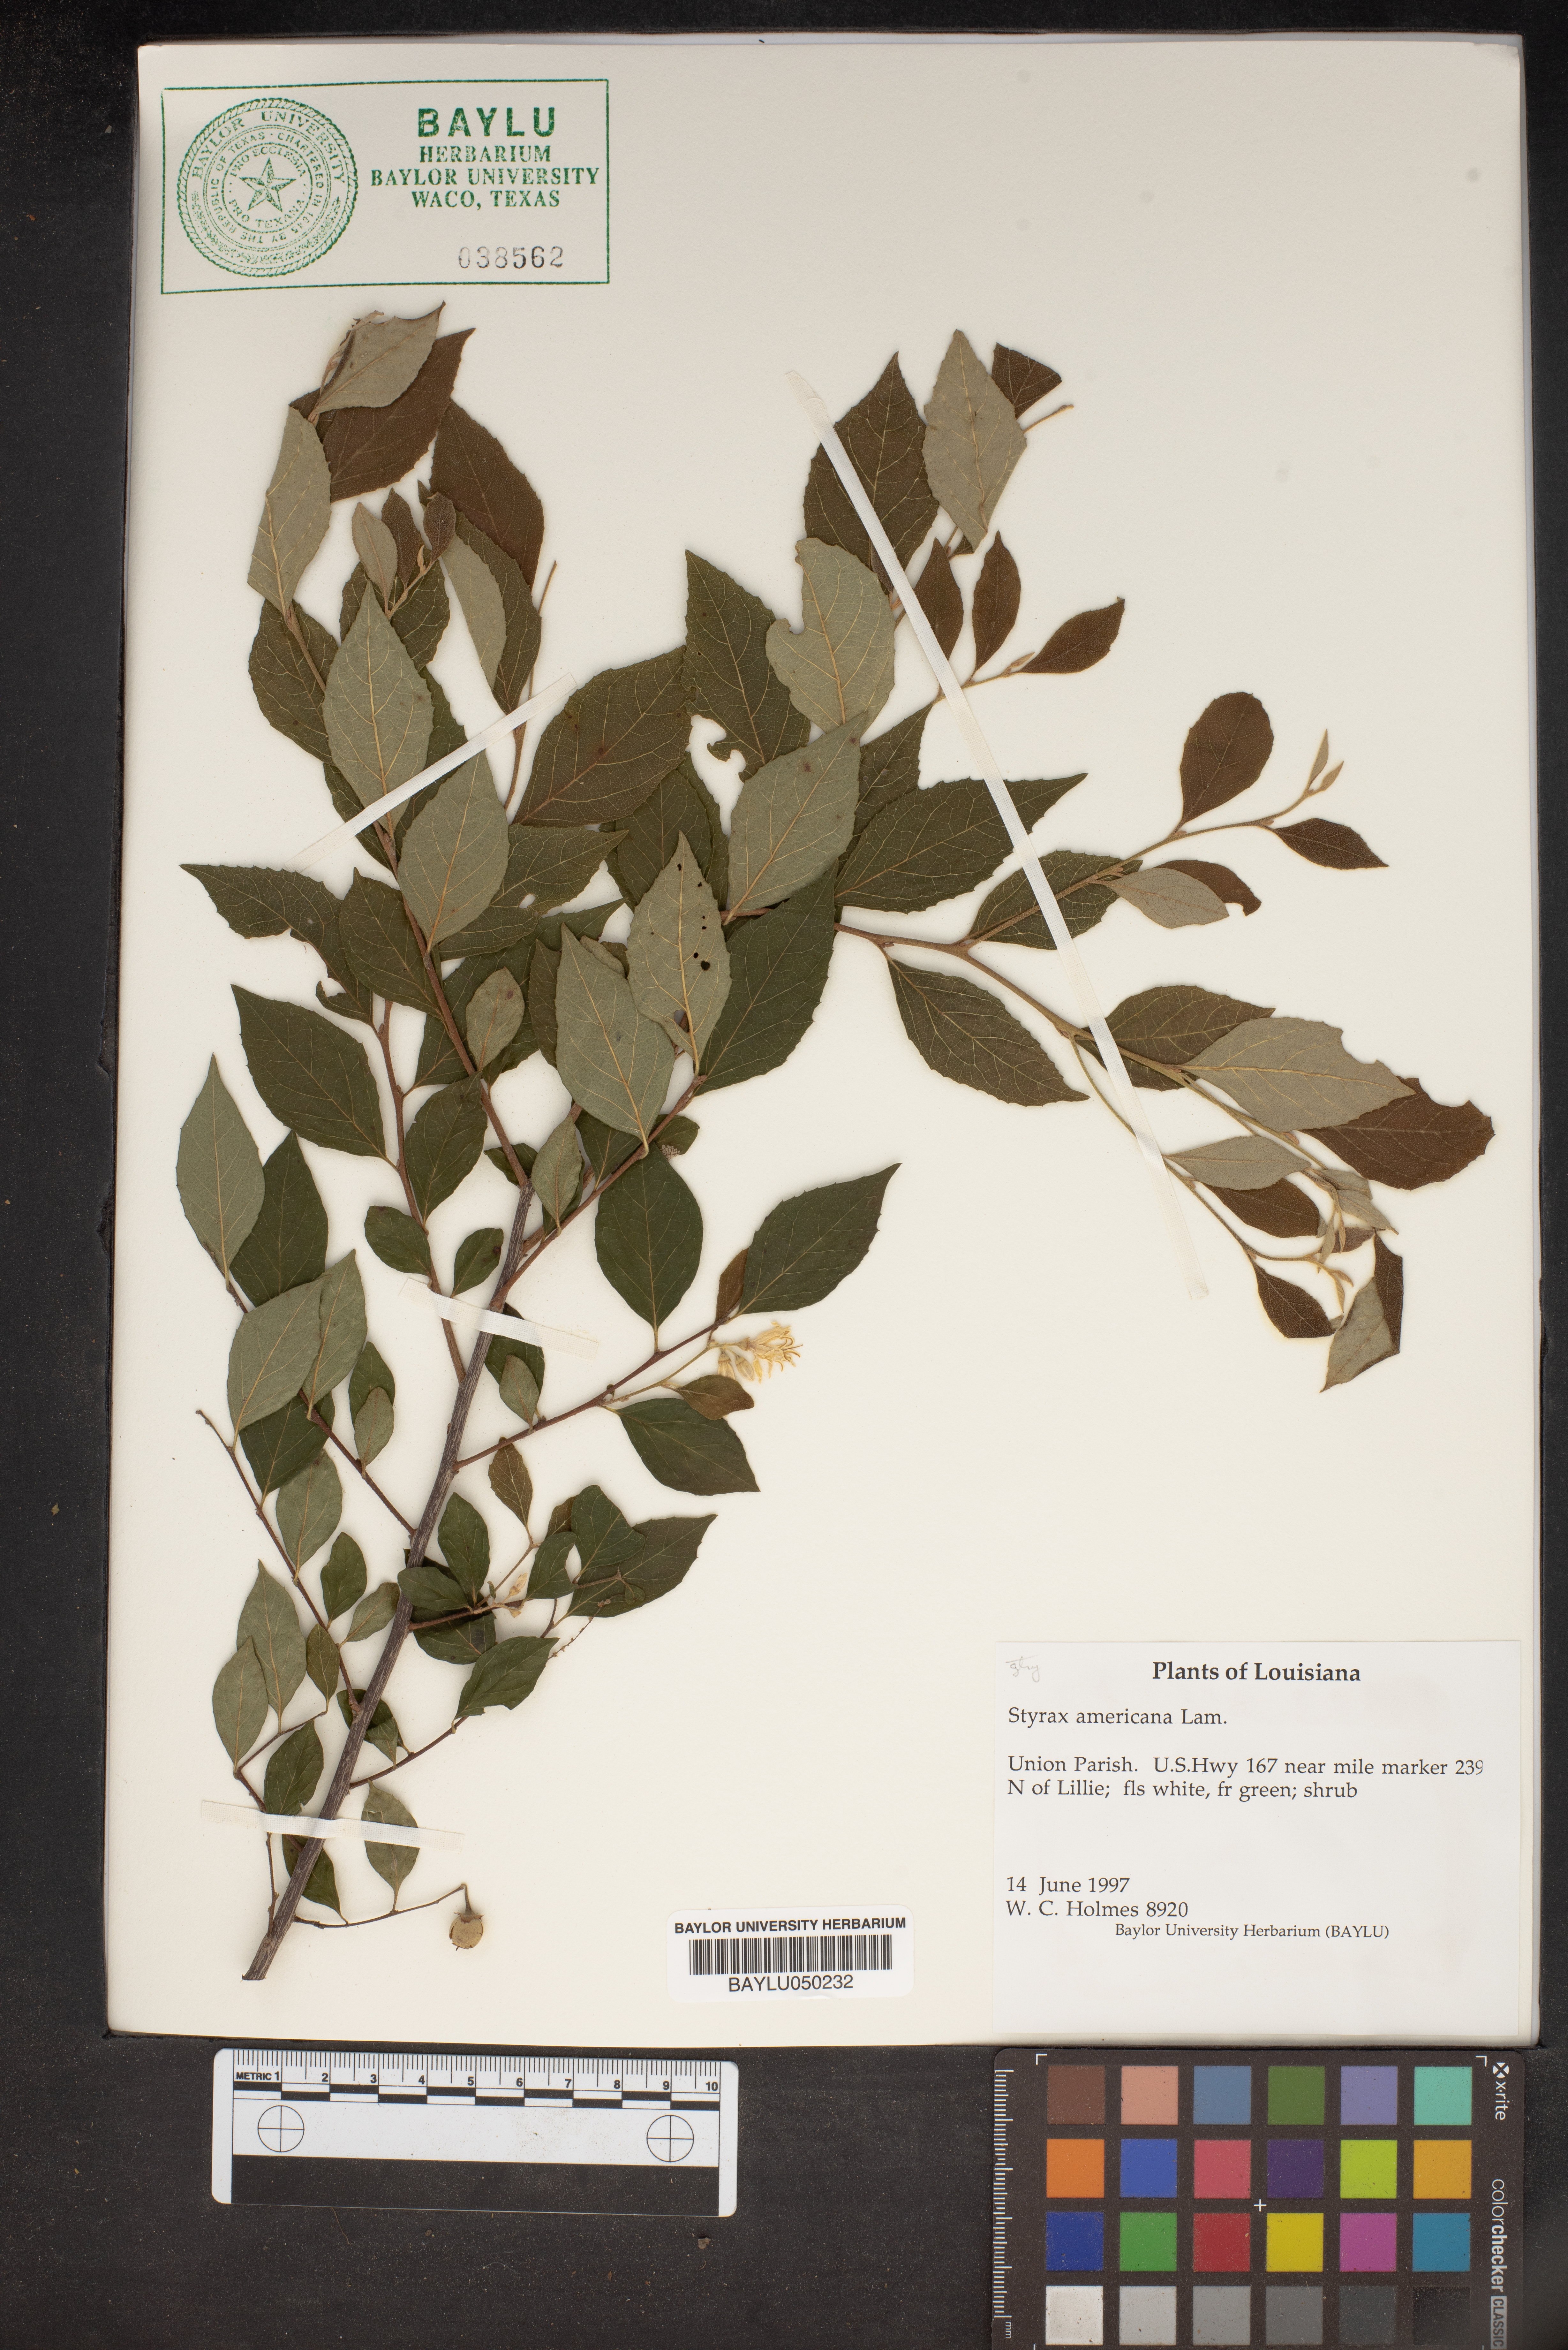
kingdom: Plantae
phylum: Tracheophyta
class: Magnoliopsida
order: Ericales
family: Styracaceae
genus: Styrax
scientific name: Styrax americanus
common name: American snowbell
